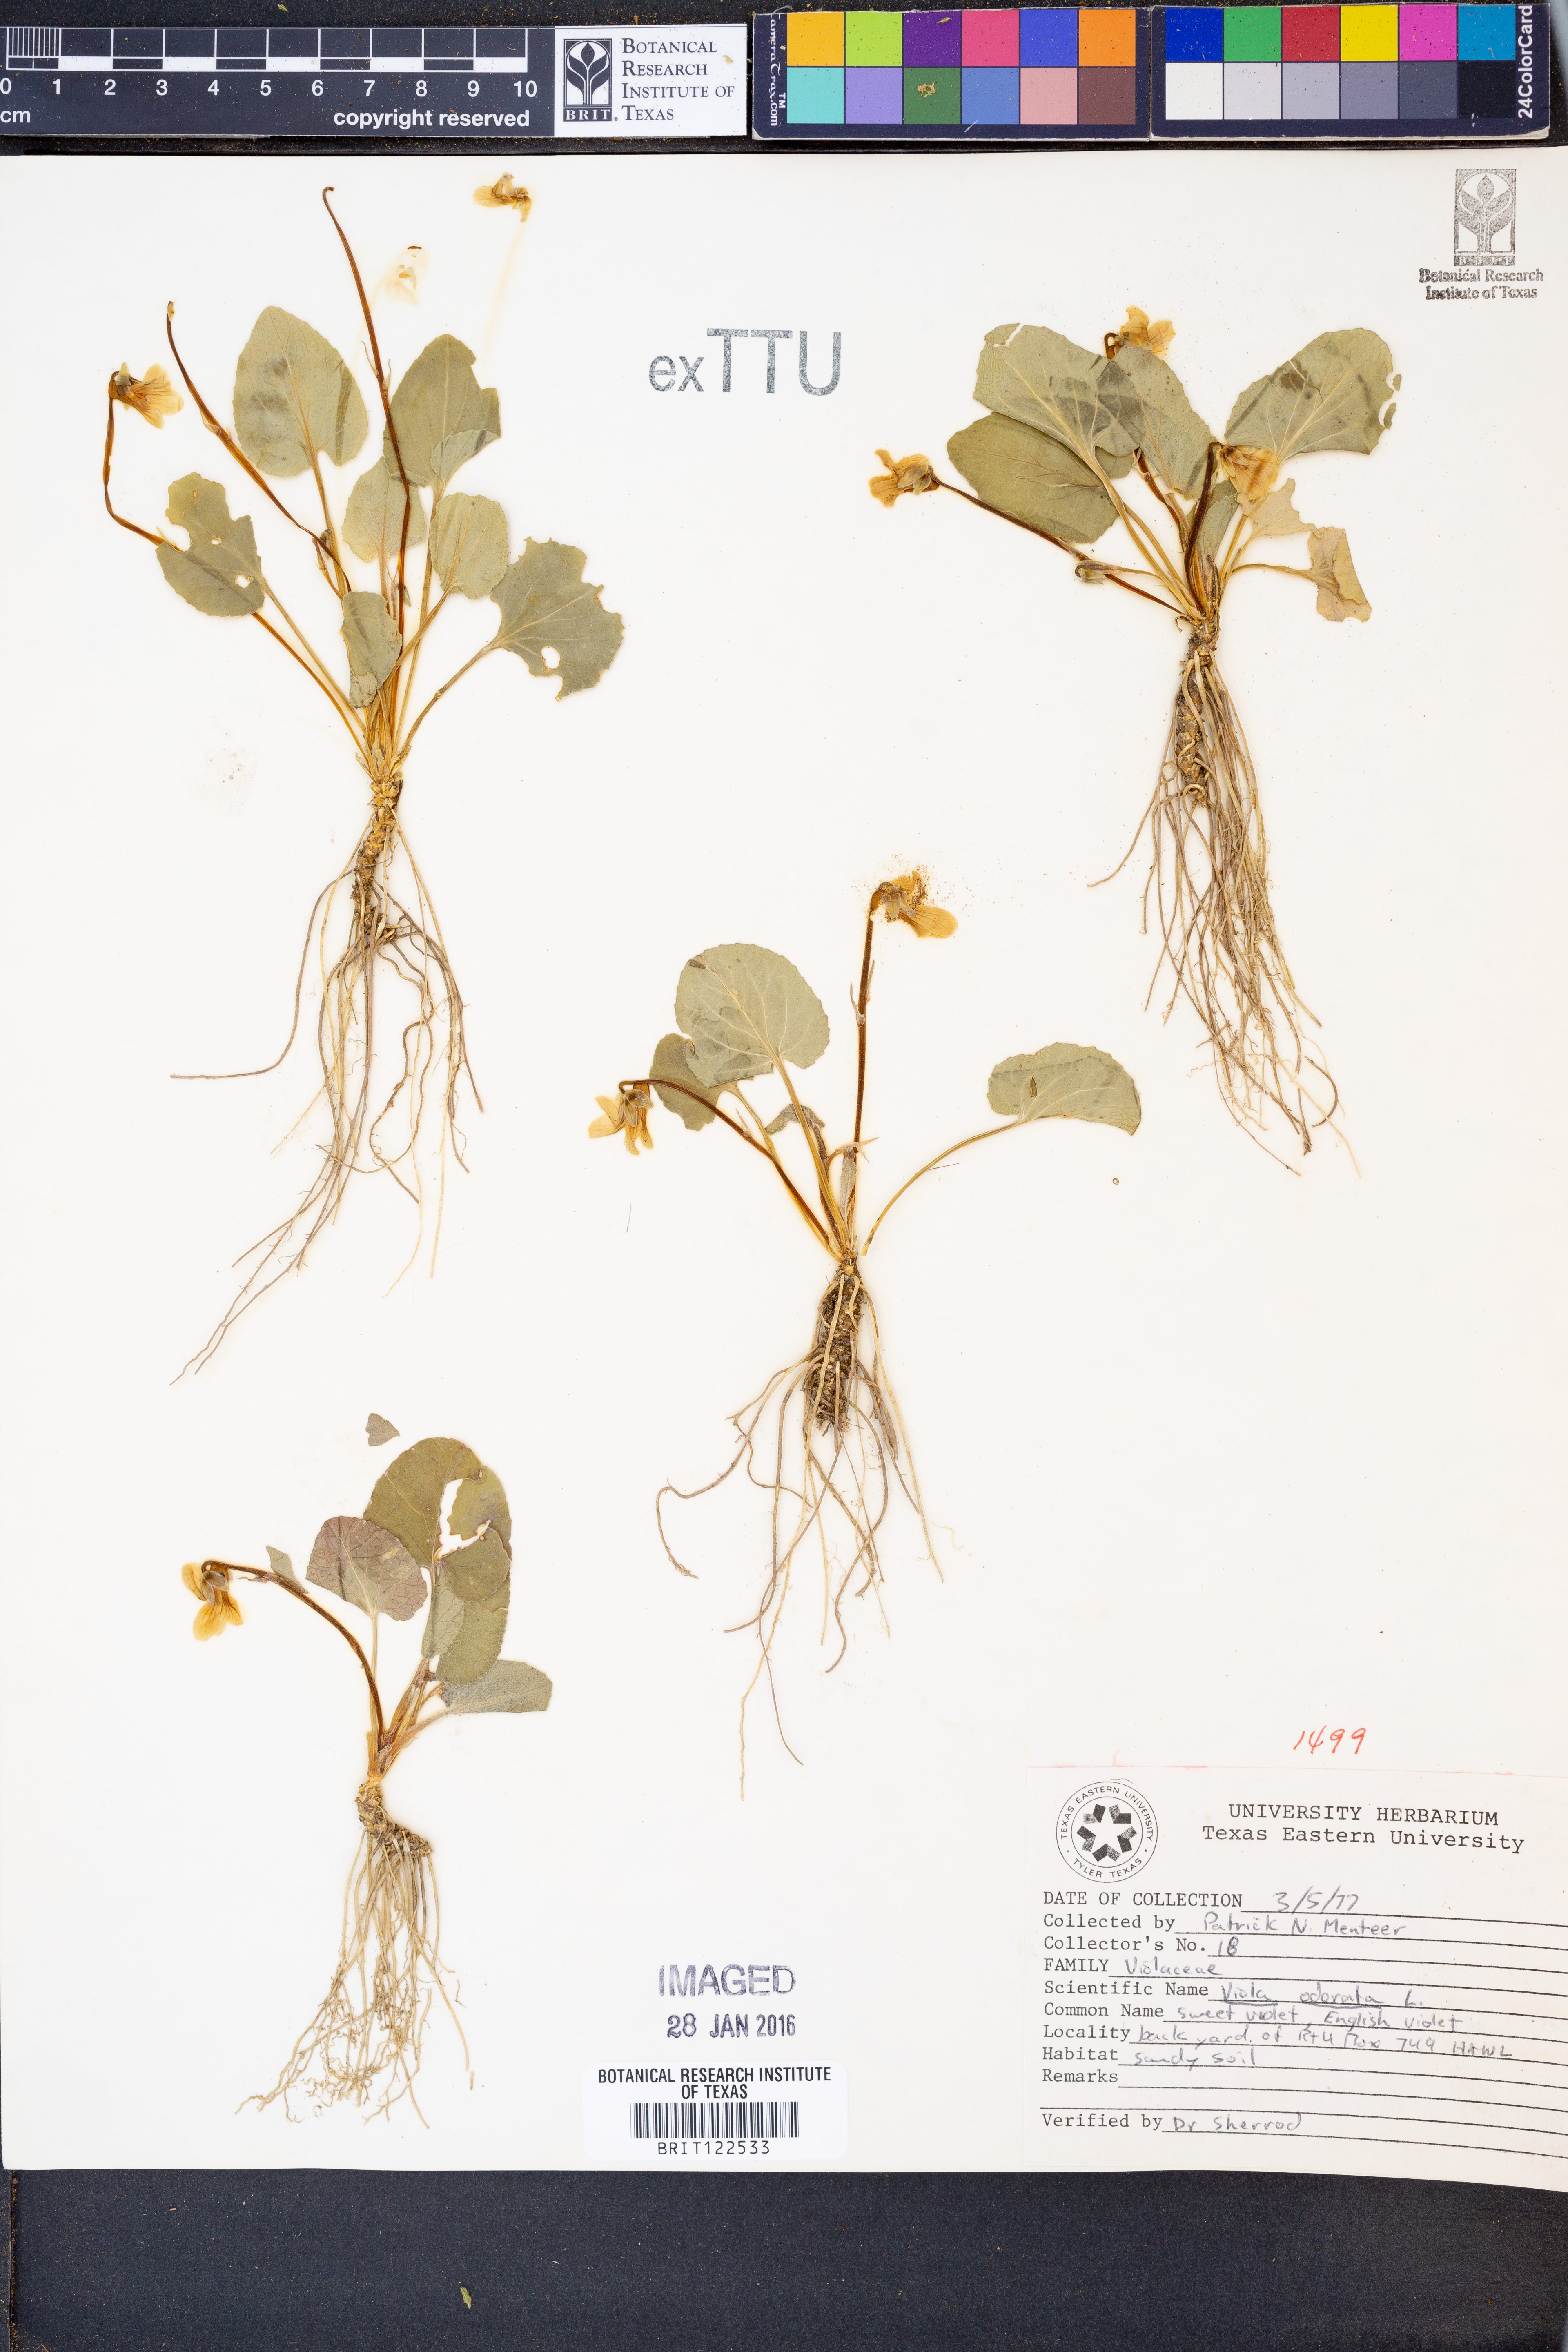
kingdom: Plantae
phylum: Tracheophyta
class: Magnoliopsida
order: Malpighiales
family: Violaceae
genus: Viola
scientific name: Viola odorata
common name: Sweet violet
